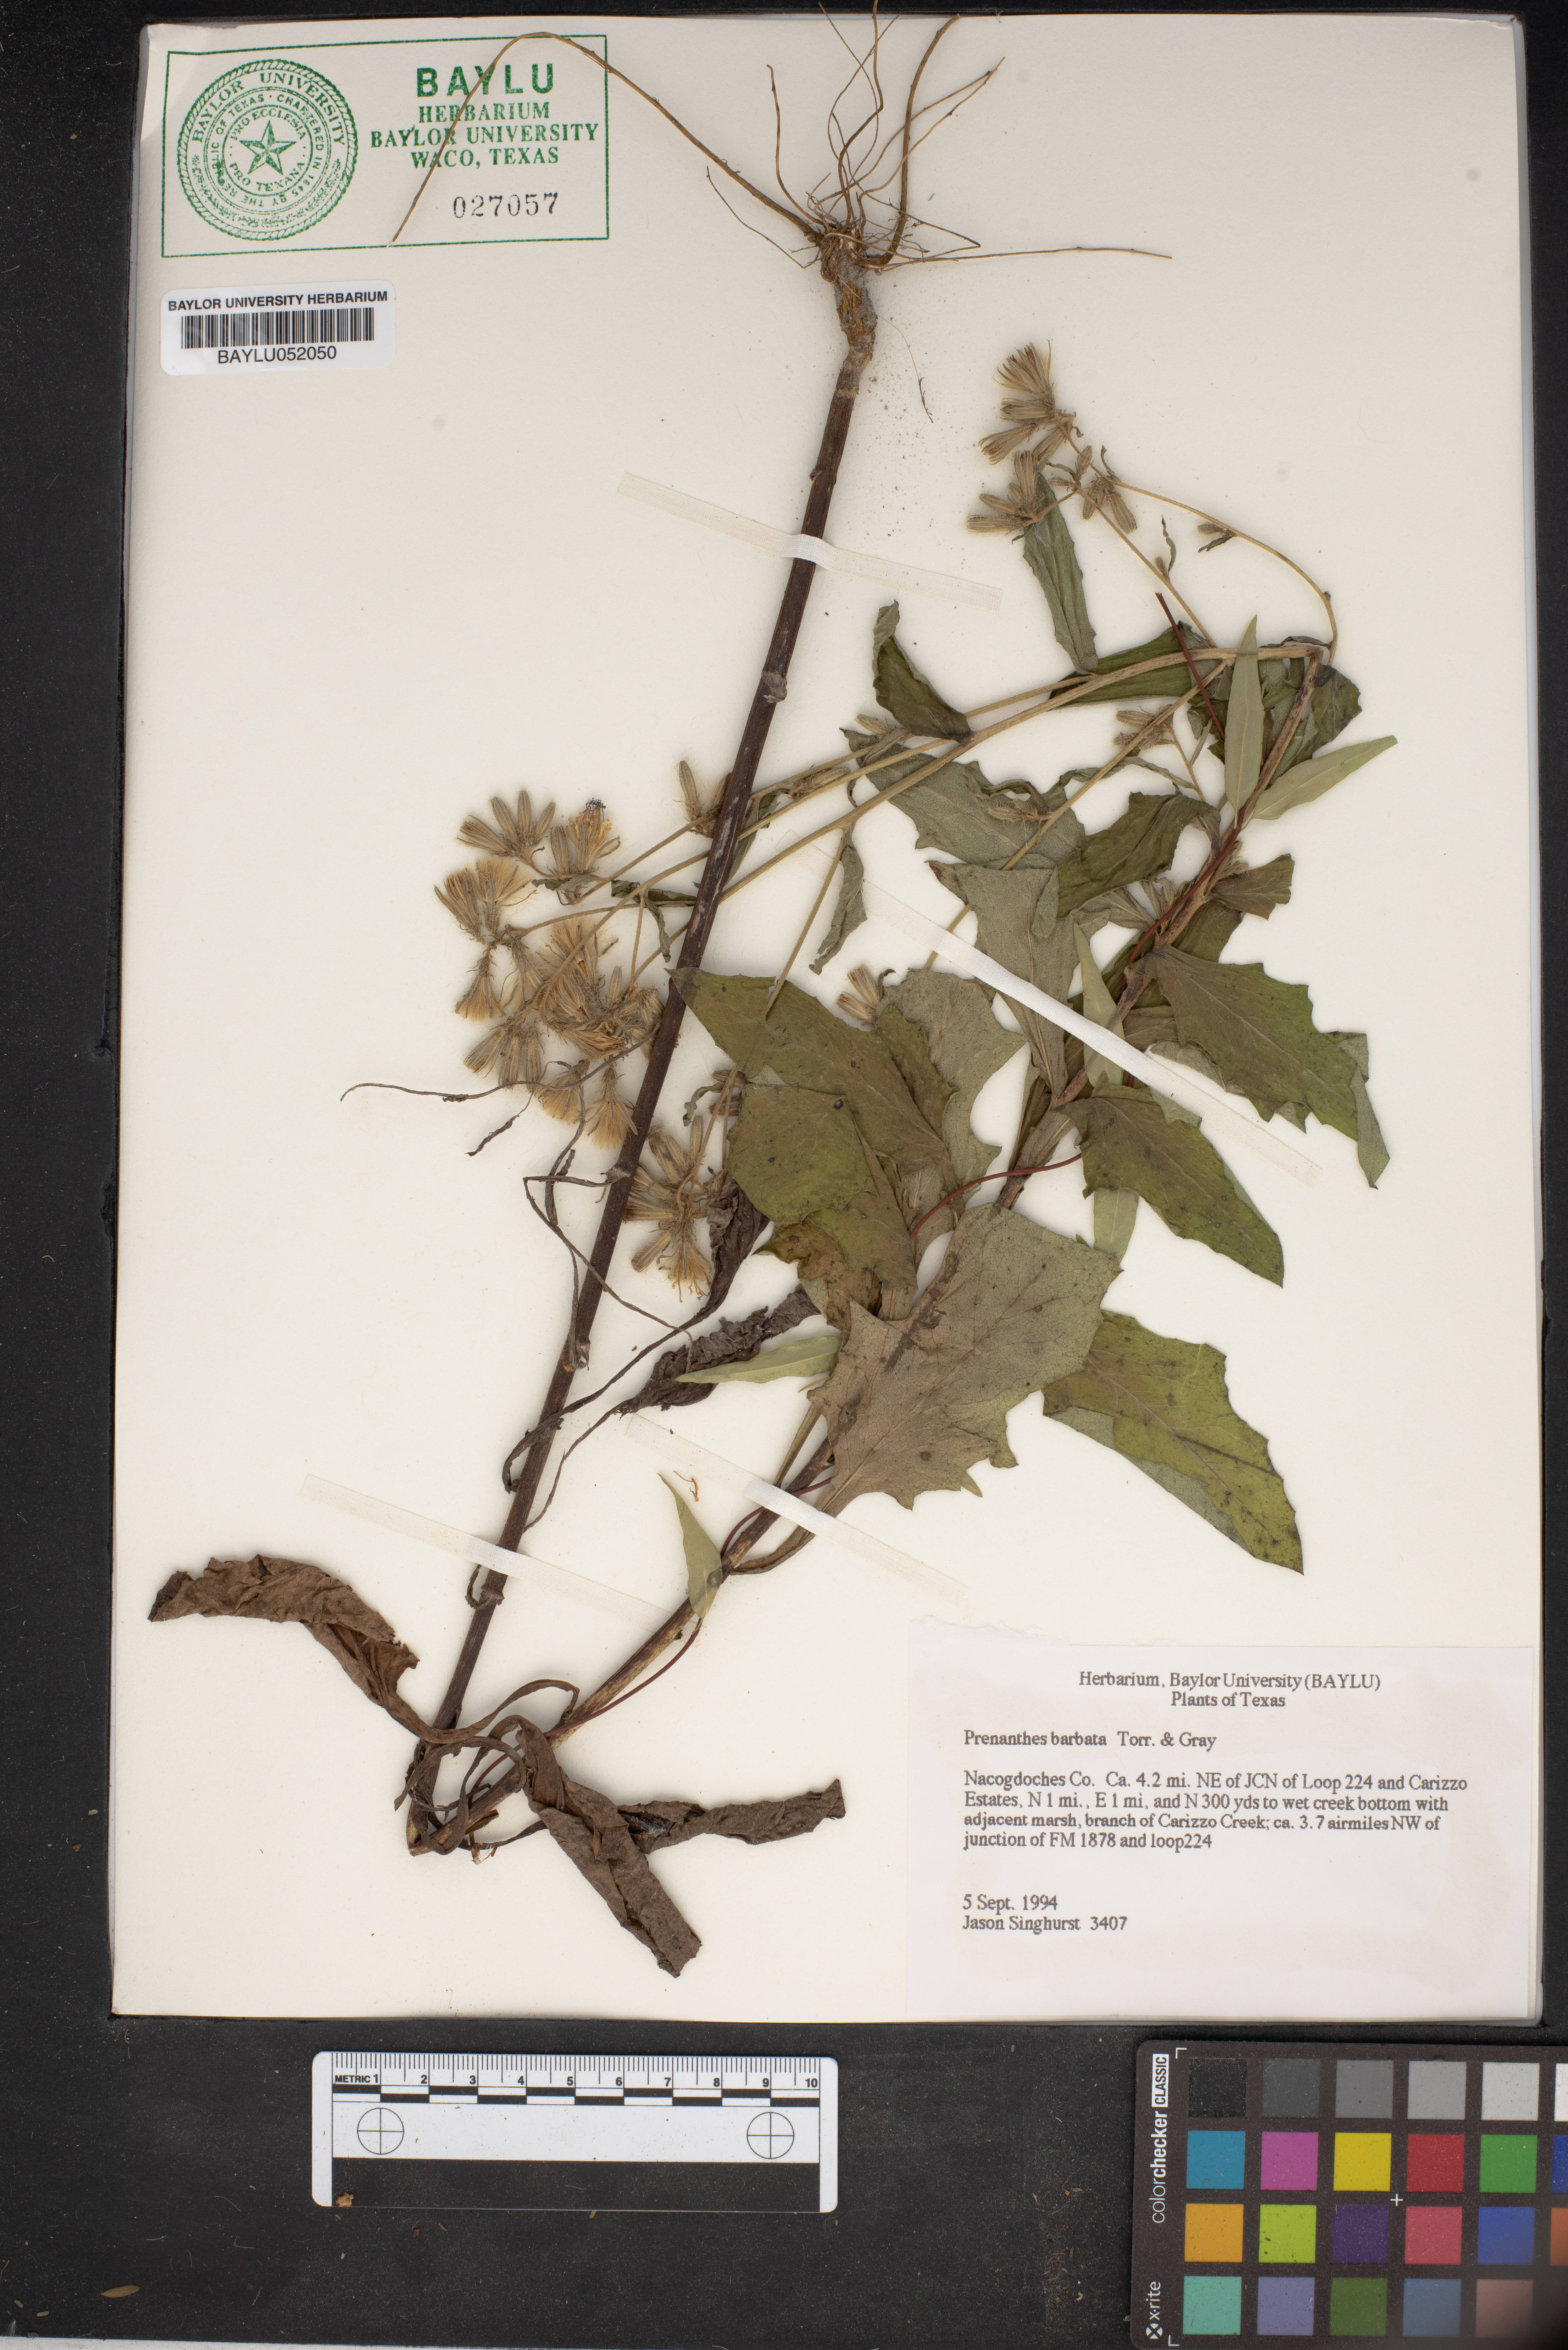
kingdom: Plantae
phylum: Tracheophyta
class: Magnoliopsida
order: Asterales
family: Asteraceae
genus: Nabalus
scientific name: Nabalus barbata
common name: Barbed rattlesnakeroot
